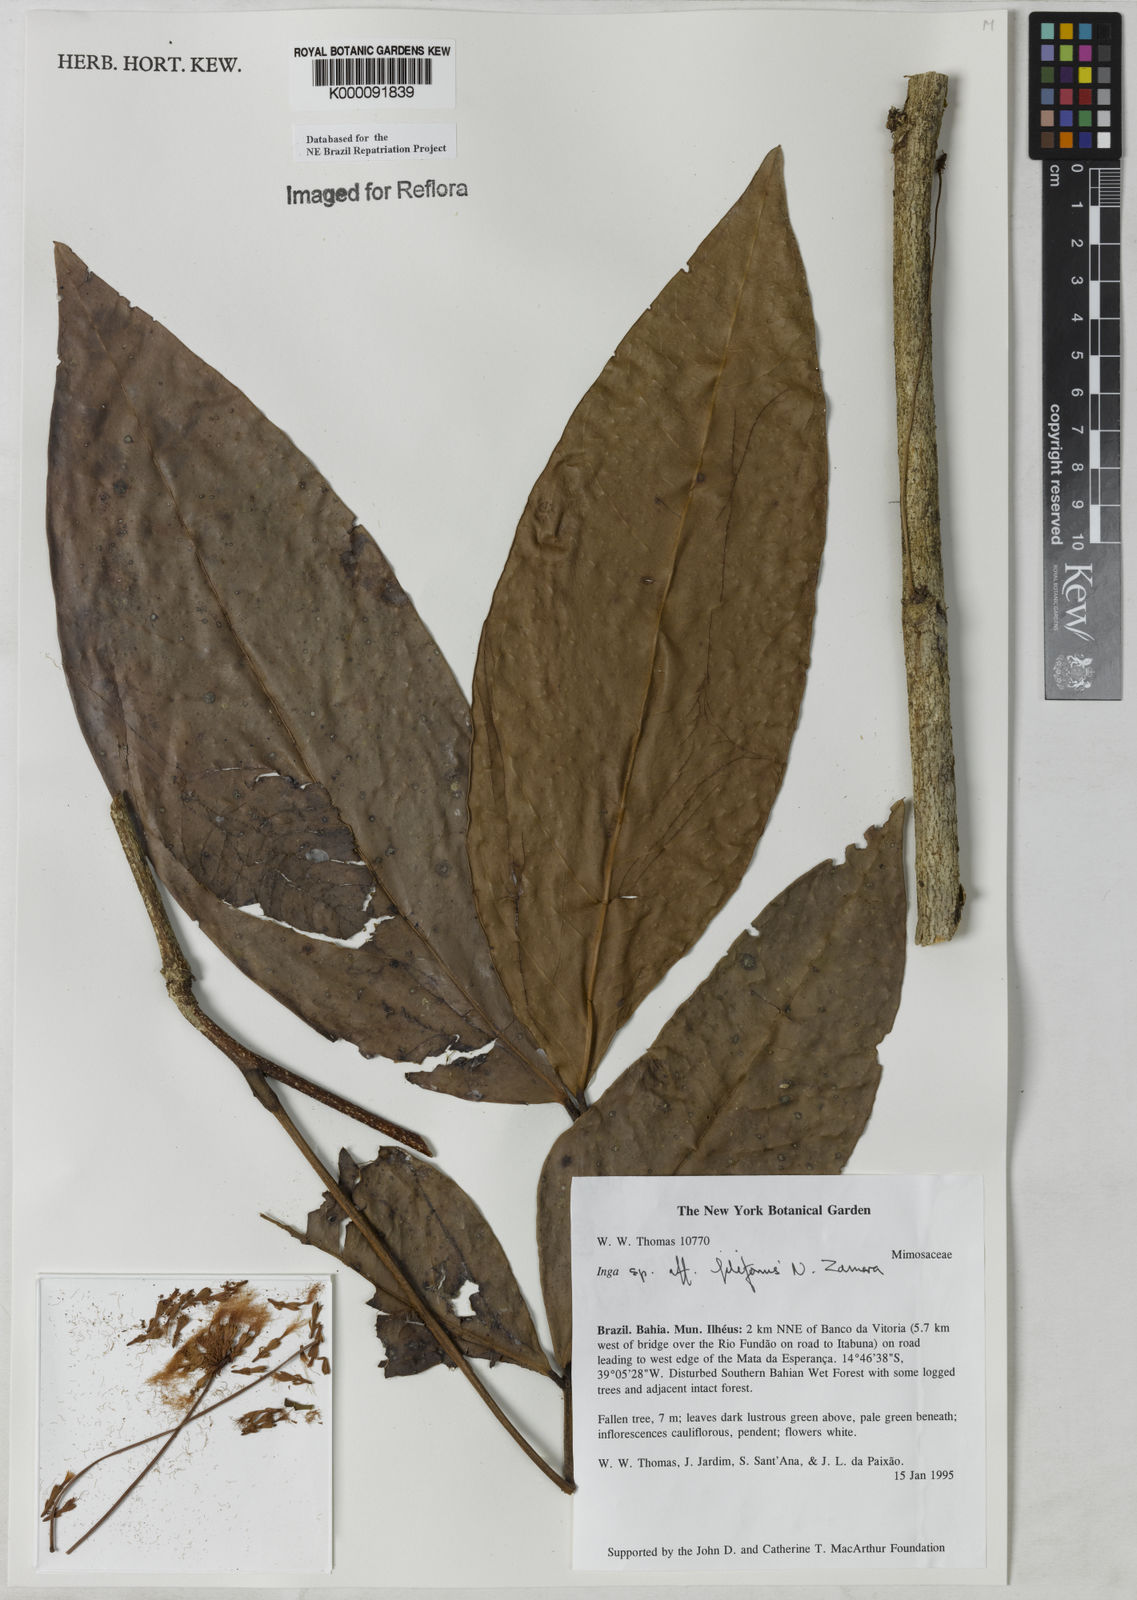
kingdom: Plantae
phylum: Tracheophyta
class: Magnoliopsida
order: Fabales
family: Fabaceae
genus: Inga
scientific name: Inga filiformis
